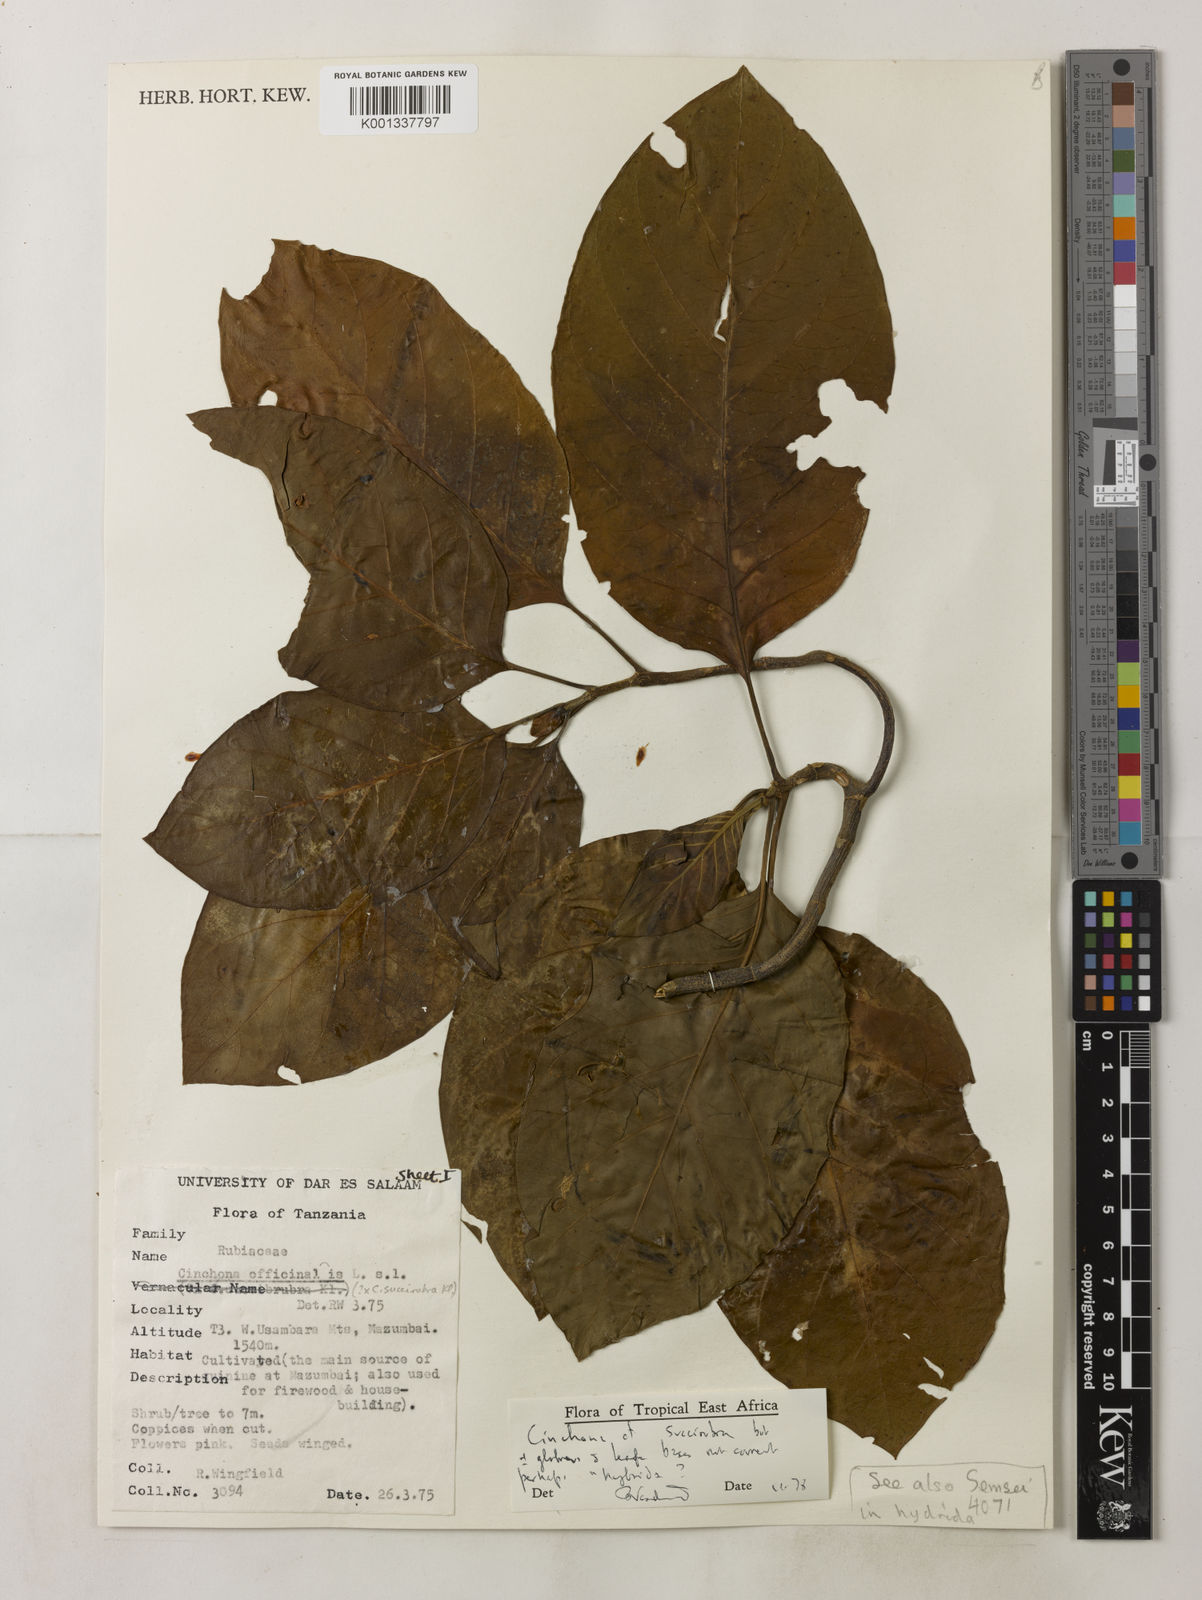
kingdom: Plantae
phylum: Tracheophyta
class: Magnoliopsida
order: Gentianales
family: Rubiaceae
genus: Cinchona
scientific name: Cinchona pubescens
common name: Quinine
